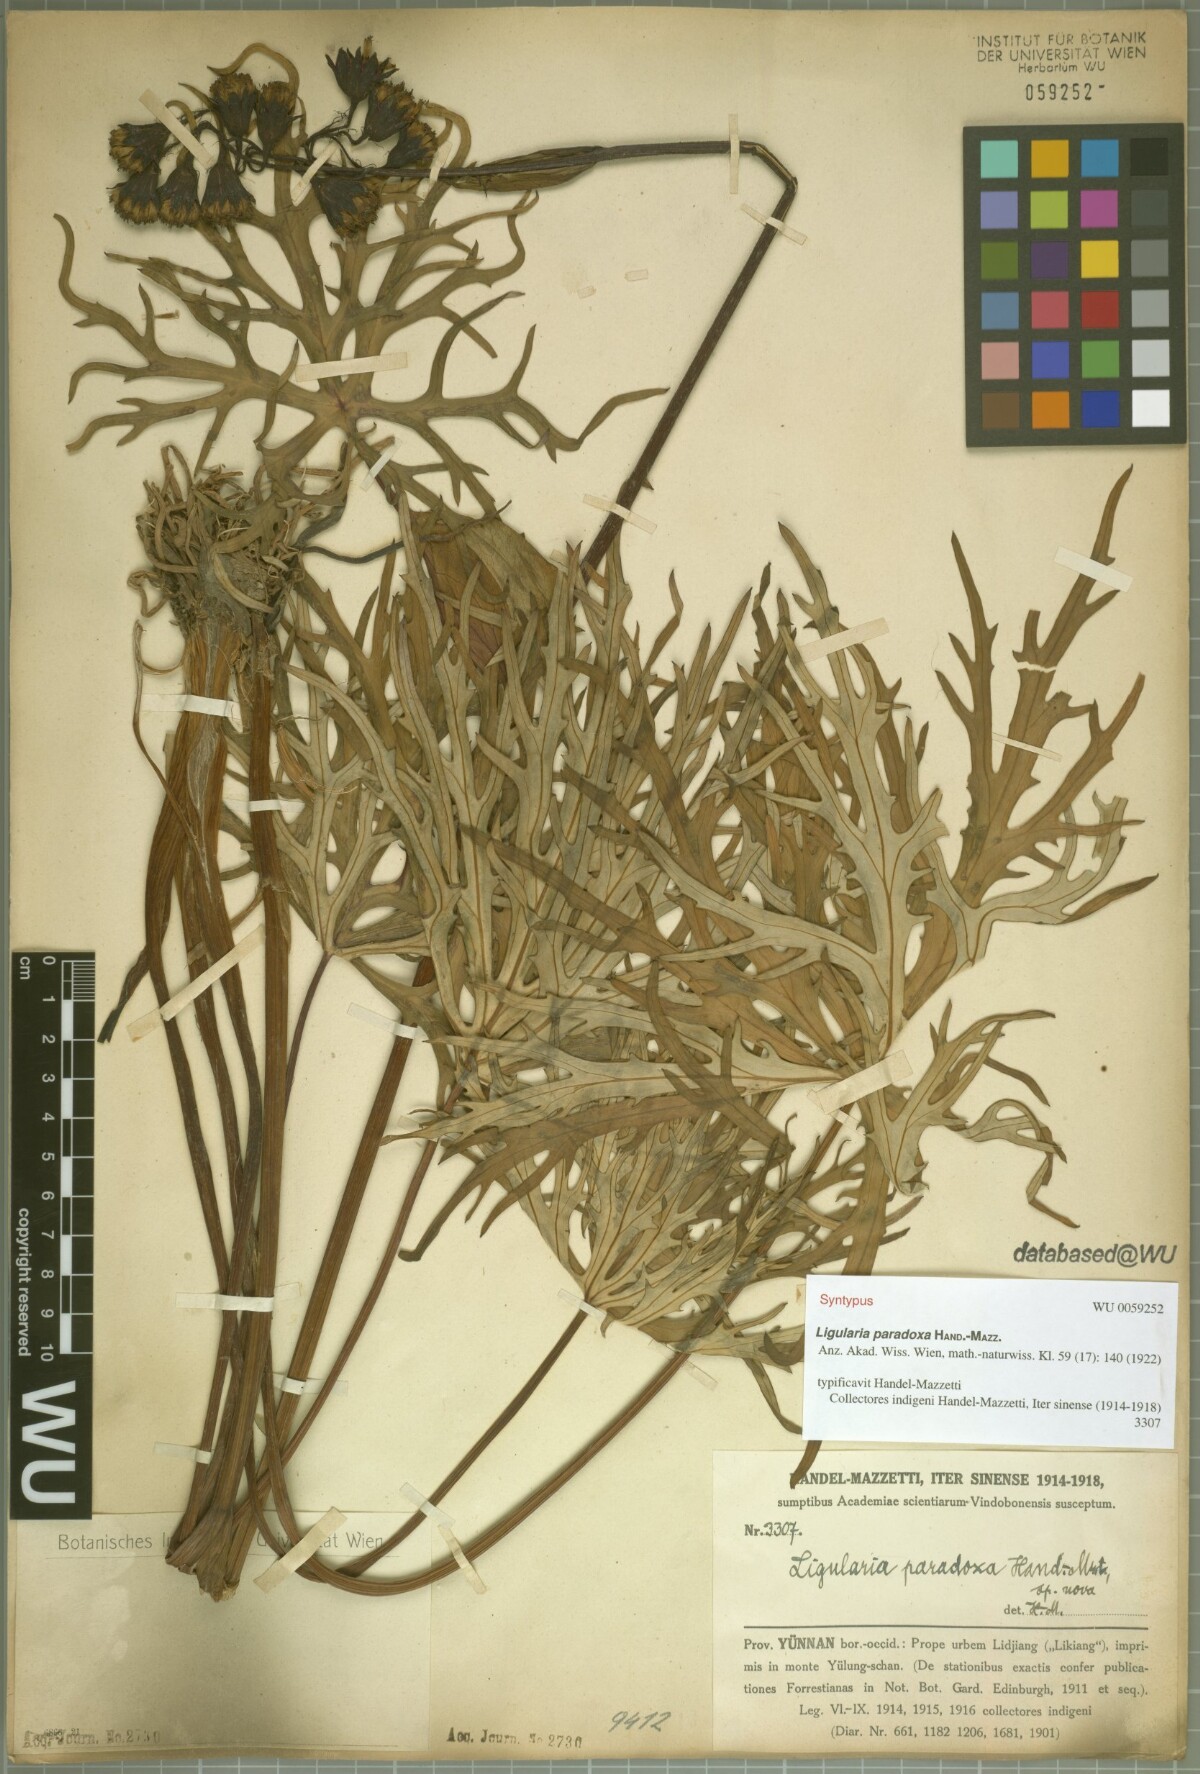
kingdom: Plantae
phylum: Tracheophyta
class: Magnoliopsida
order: Asterales
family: Asteraceae
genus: Ligularia
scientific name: Ligularia paradoxa
